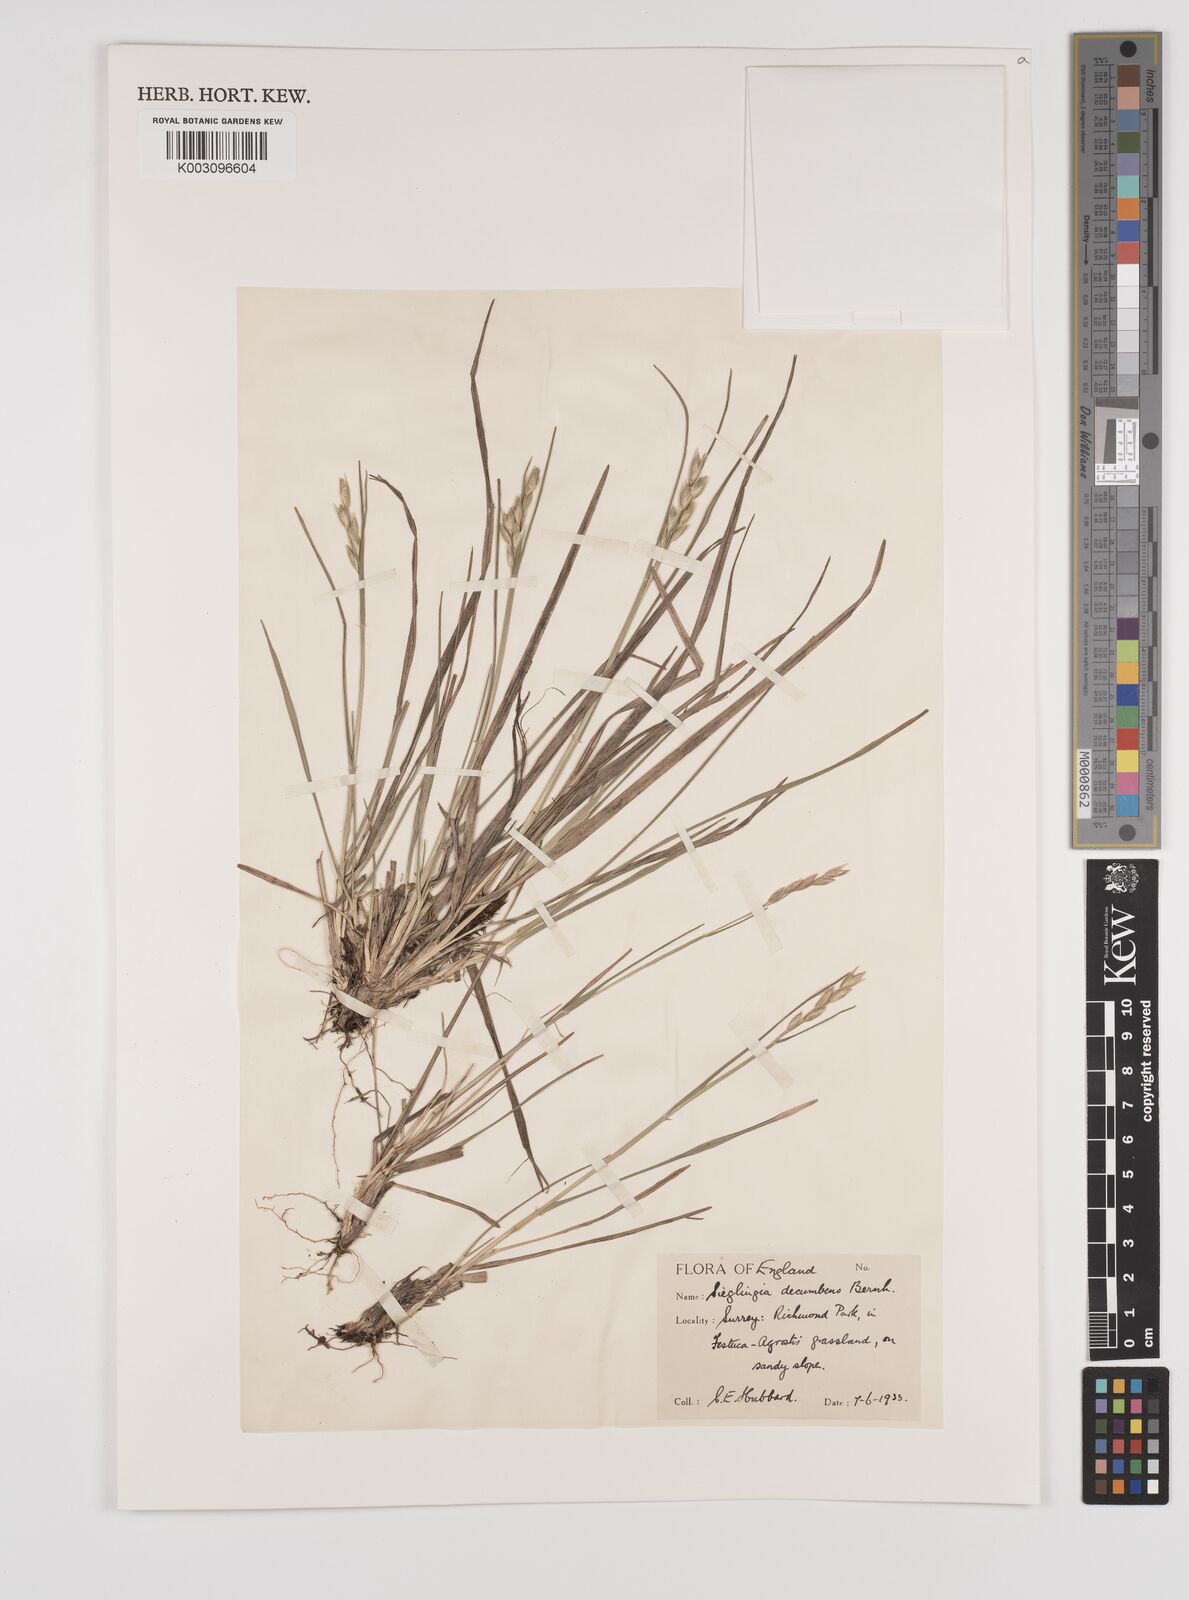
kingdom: Plantae
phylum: Tracheophyta
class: Liliopsida
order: Poales
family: Poaceae
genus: Danthonia
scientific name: Danthonia decumbens
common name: Common heathgrass
